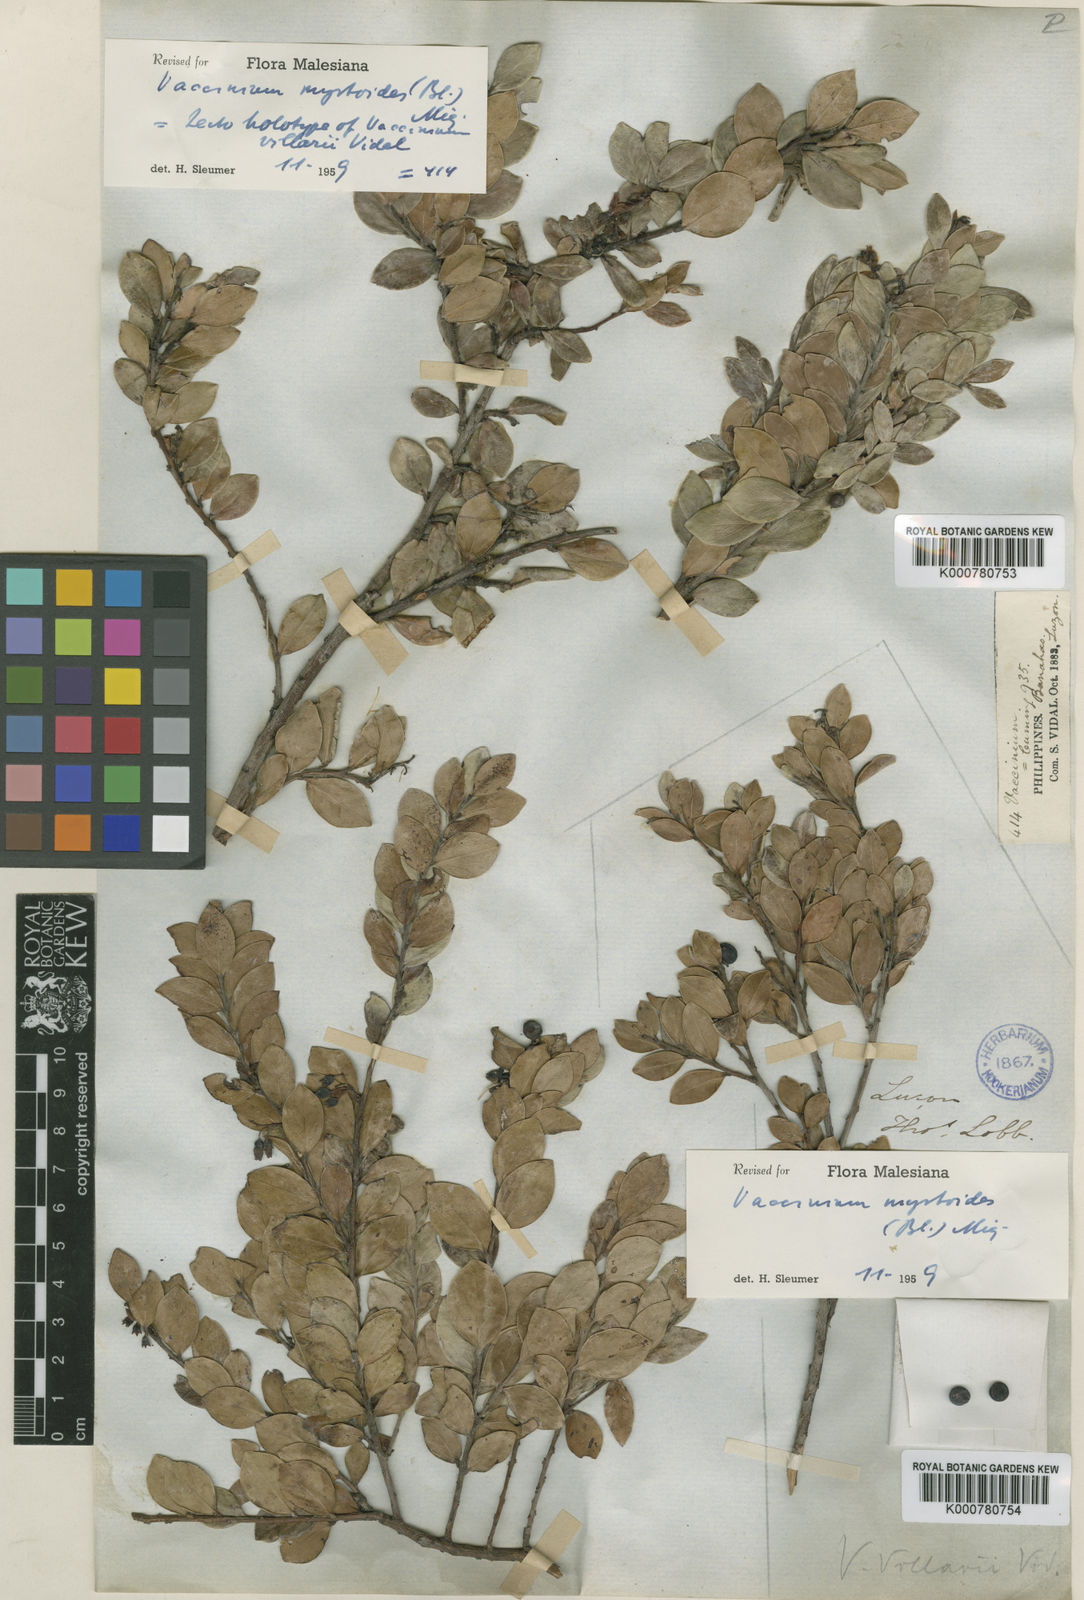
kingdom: Plantae
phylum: Tracheophyta
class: Magnoliopsida
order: Ericales
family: Ericaceae
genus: Vaccinium
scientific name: Vaccinium myrtoides
